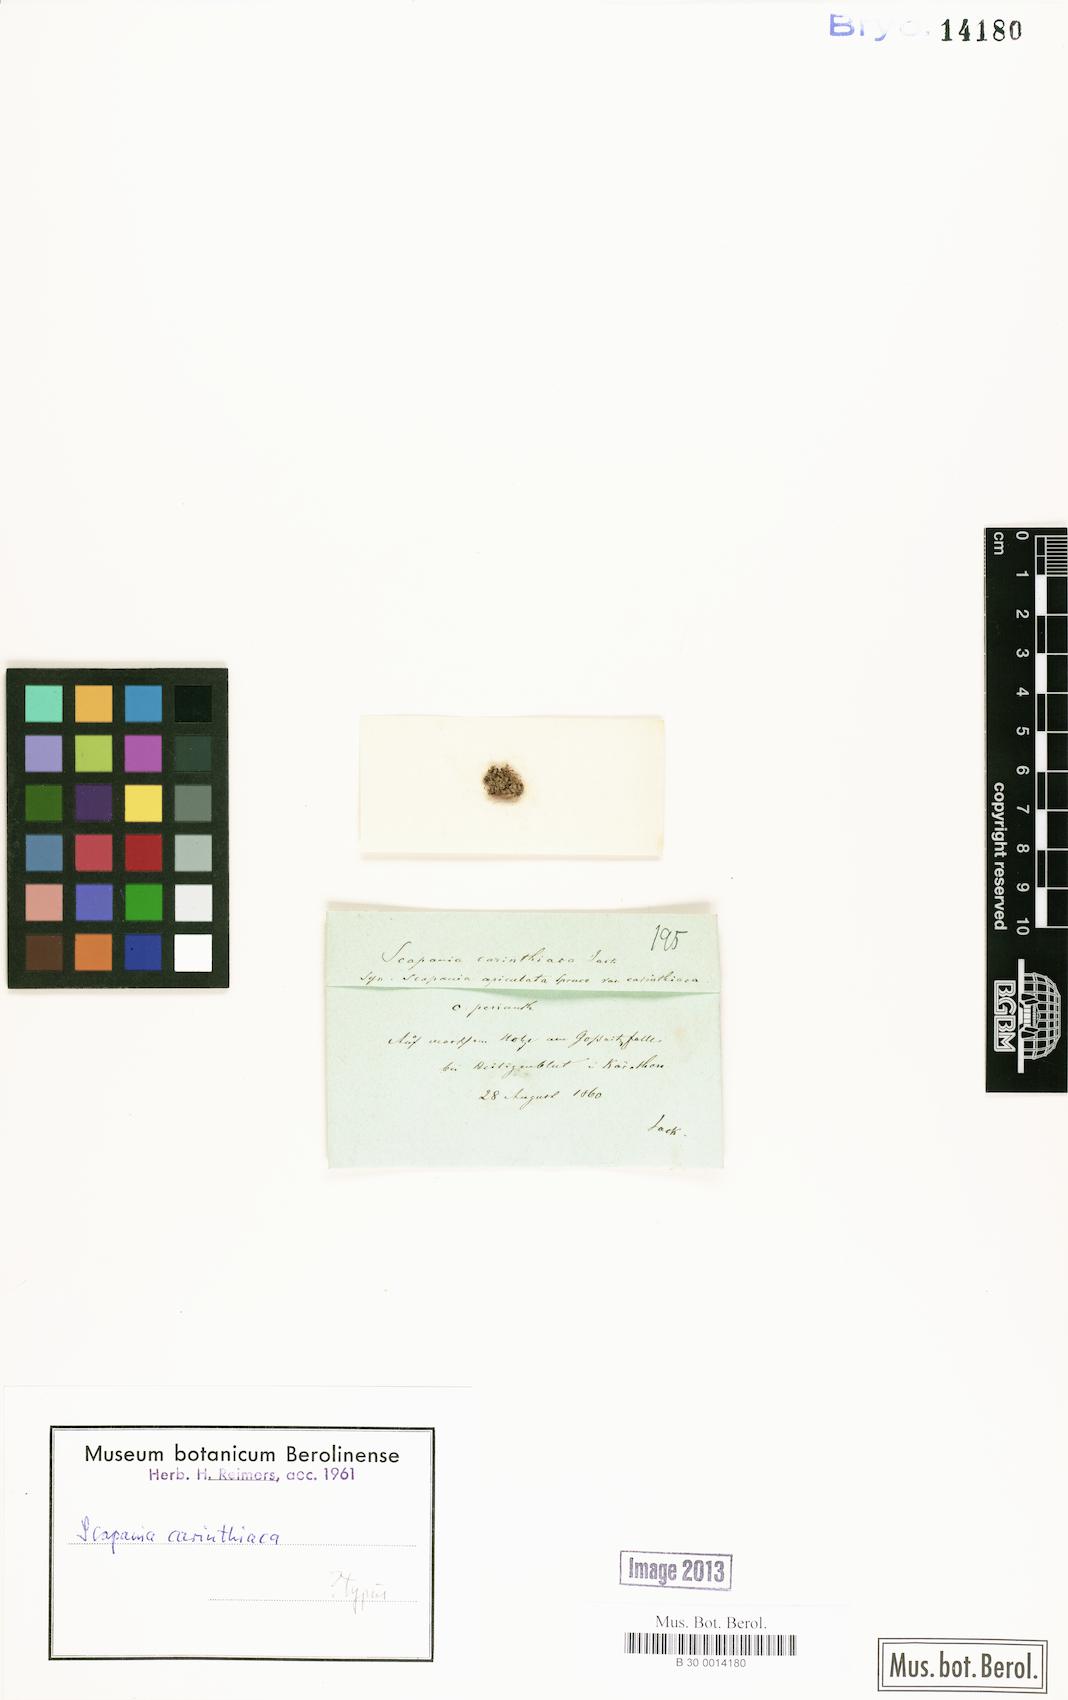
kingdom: Plantae
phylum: Marchantiophyta
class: Jungermanniopsida
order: Jungermanniales
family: Scapaniaceae
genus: Scapania
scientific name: Scapania carinthiaca
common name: Carinthian earwort
